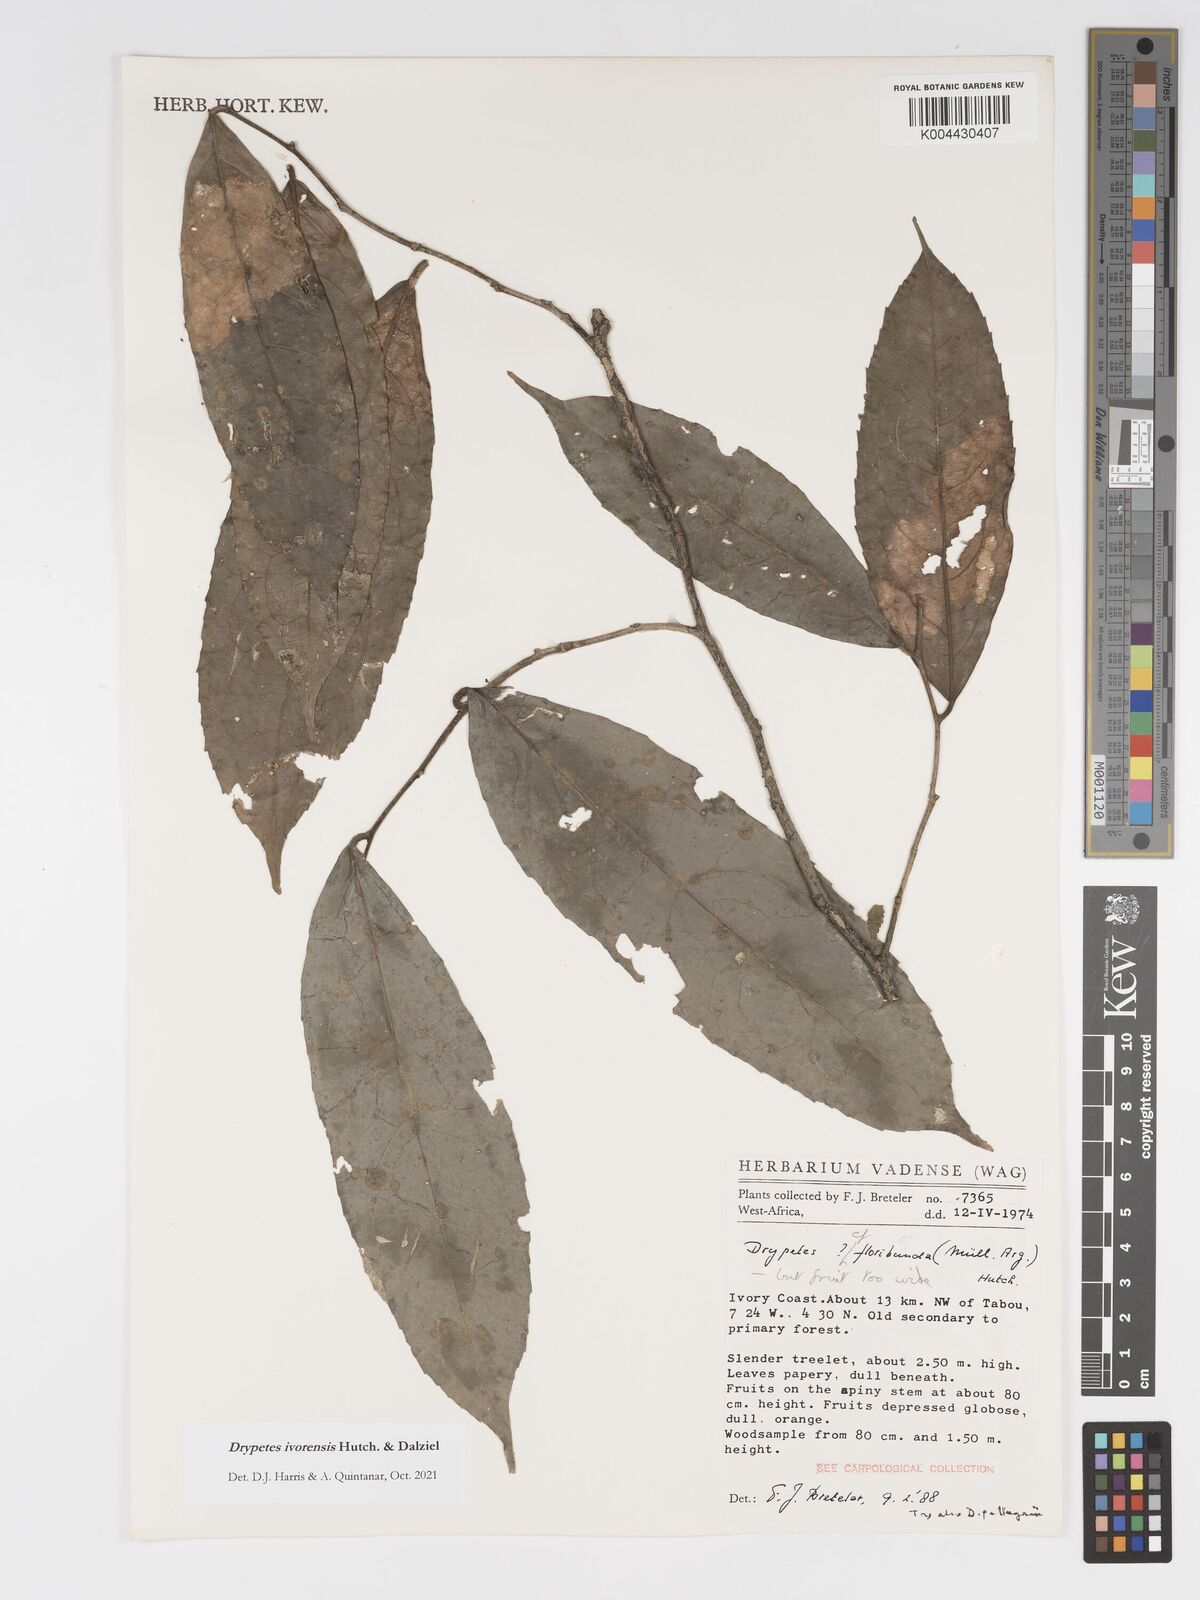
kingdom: Plantae
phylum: Tracheophyta
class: Magnoliopsida
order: Malpighiales
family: Putranjivaceae
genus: Drypetes
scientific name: Drypetes ivorensis
